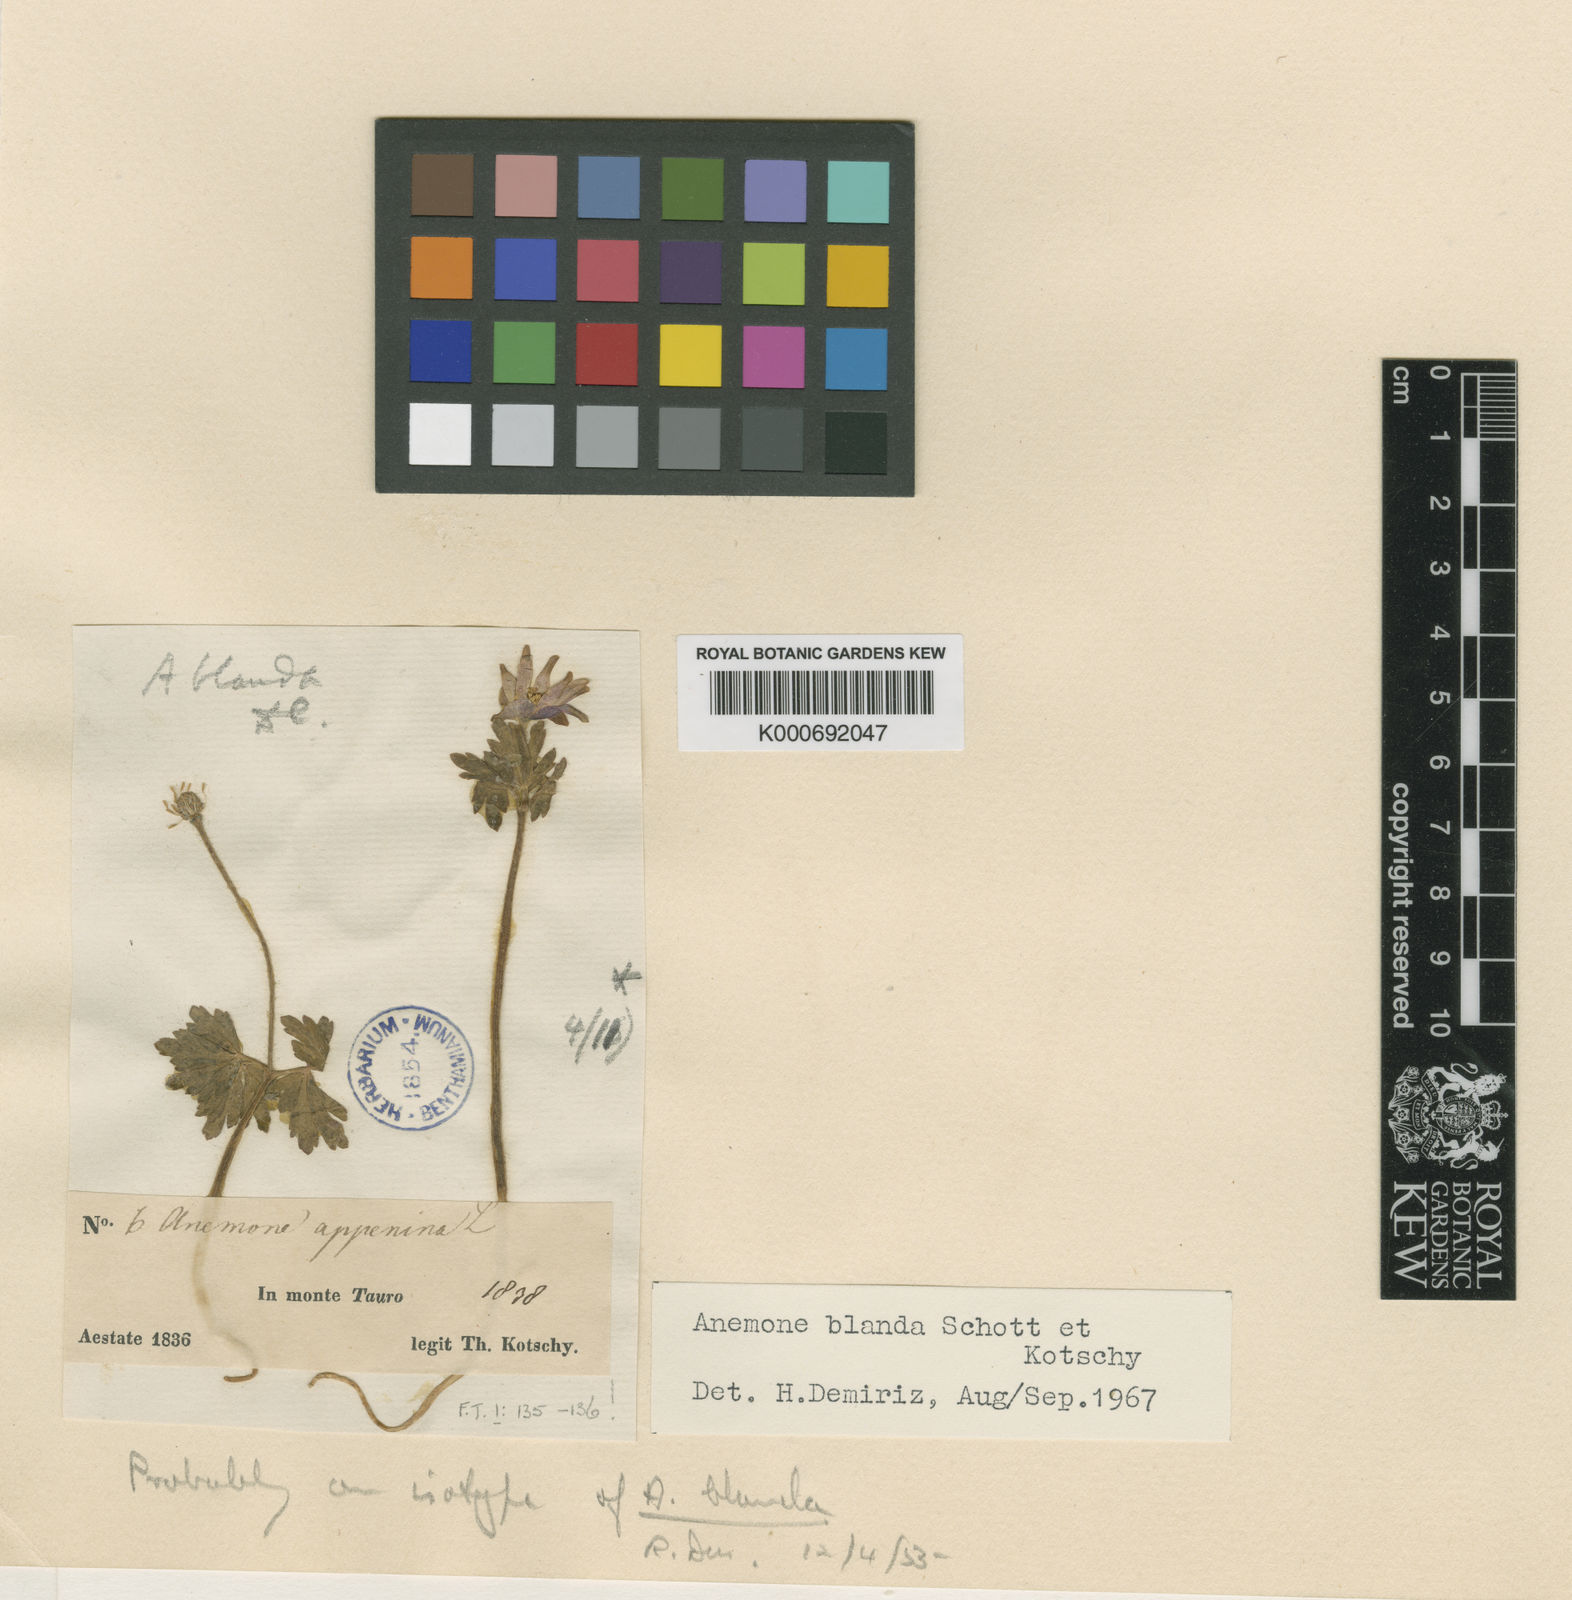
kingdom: Plantae
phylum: Tracheophyta
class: Magnoliopsida
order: Ranunculales
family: Ranunculaceae
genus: Anemone
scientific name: Anemone blanda
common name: Balkan anemone
